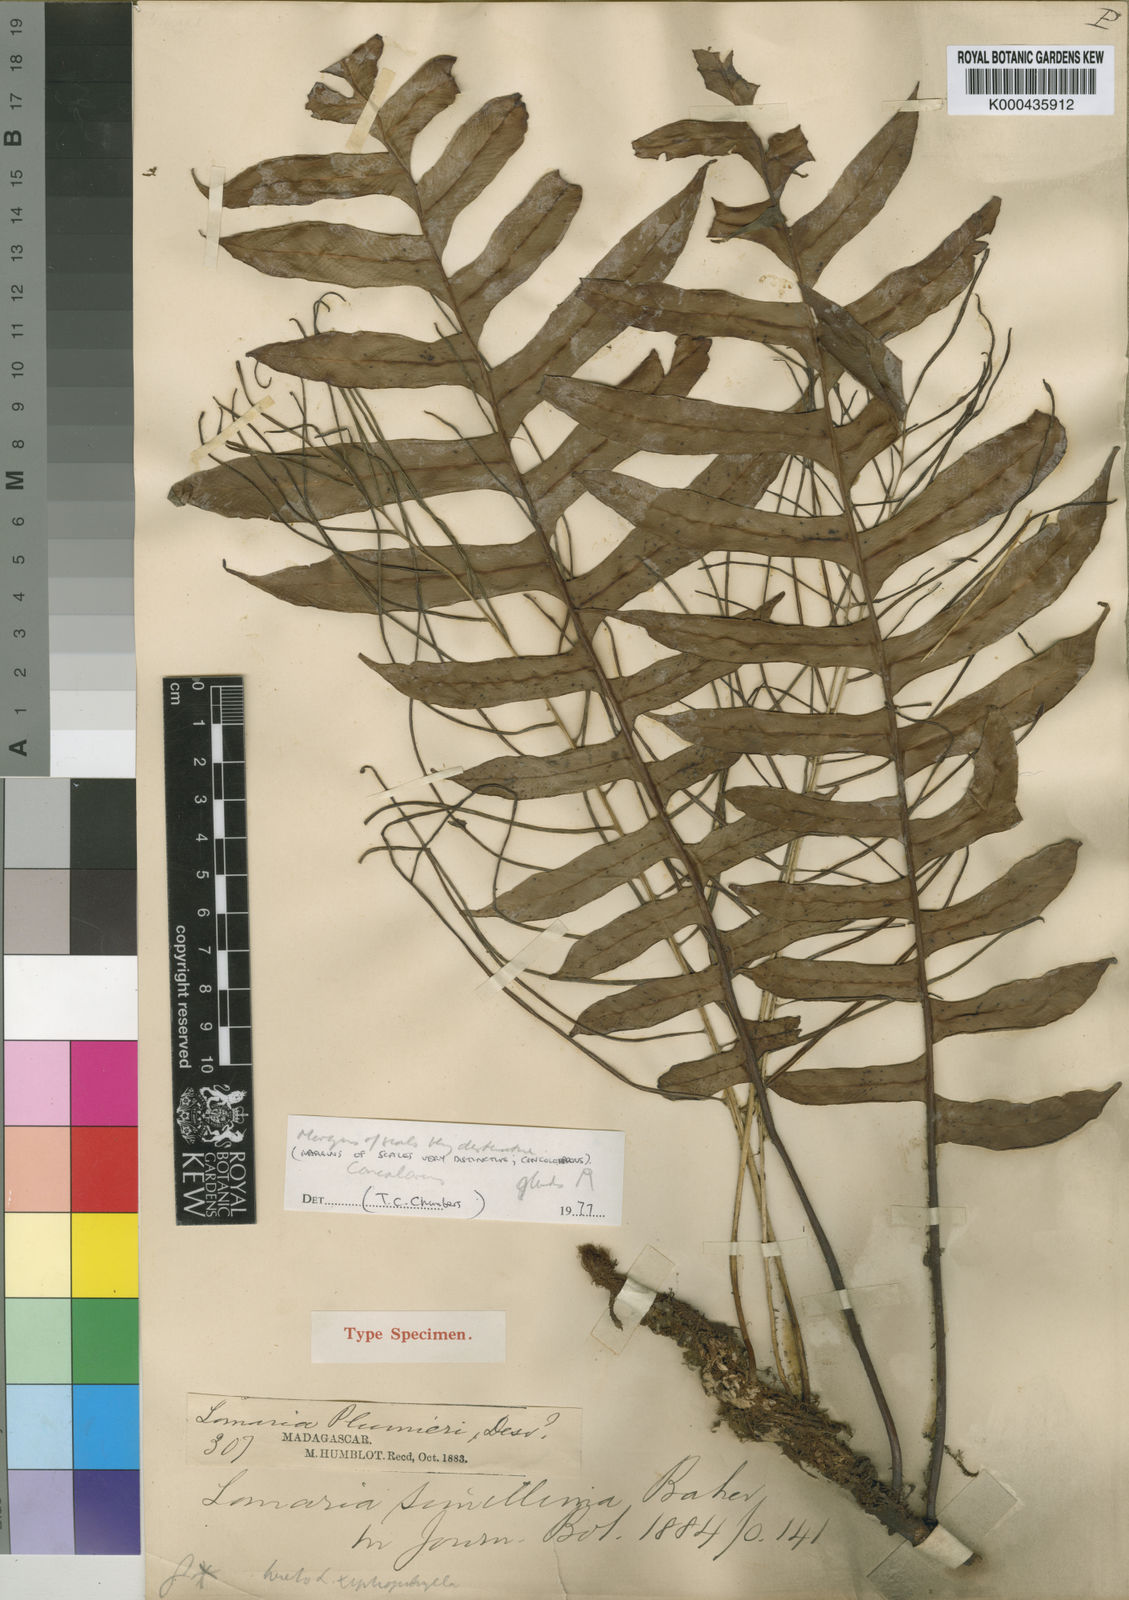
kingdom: Plantae
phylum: Tracheophyta
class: Polypodiopsida
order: Polypodiales
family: Blechnaceae
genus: Lomaridium
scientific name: Lomaridium simillimum
